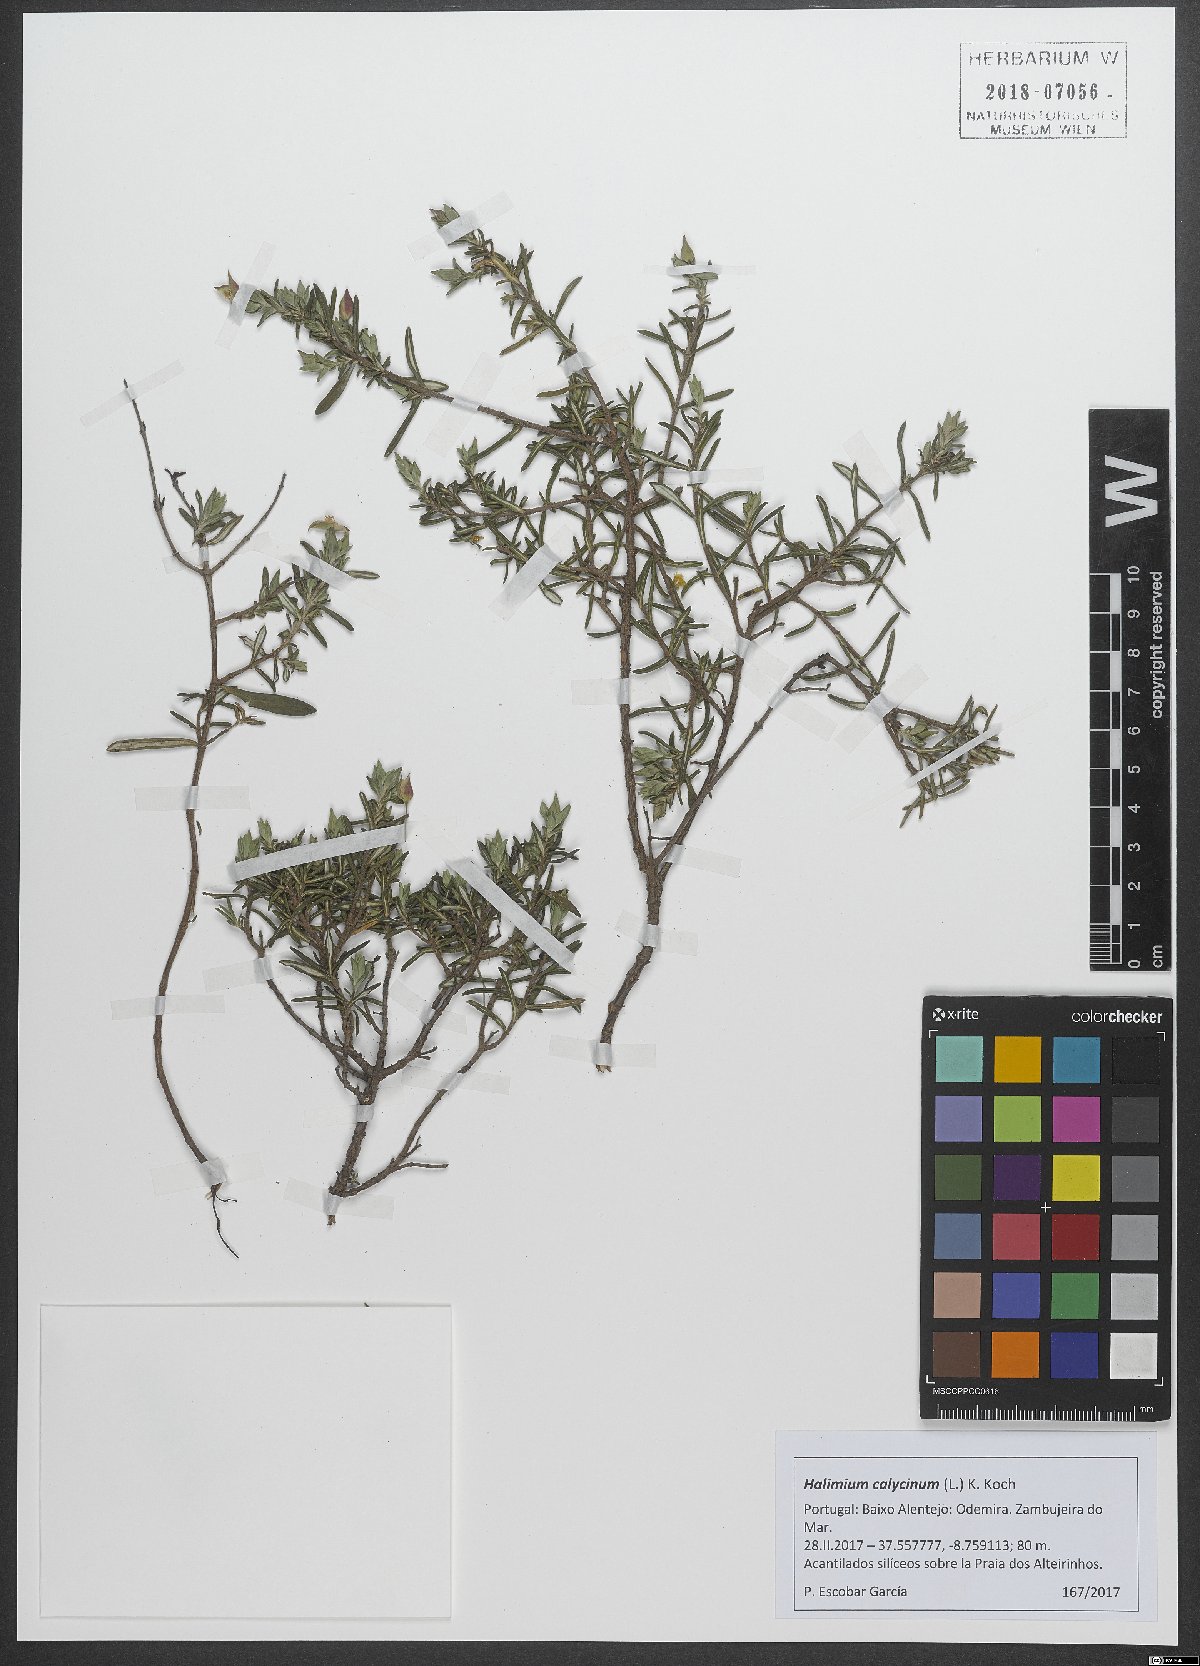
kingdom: Plantae
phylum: Tracheophyta
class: Magnoliopsida
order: Malvales
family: Cistaceae
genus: Halimium
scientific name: Halimium calycinum
